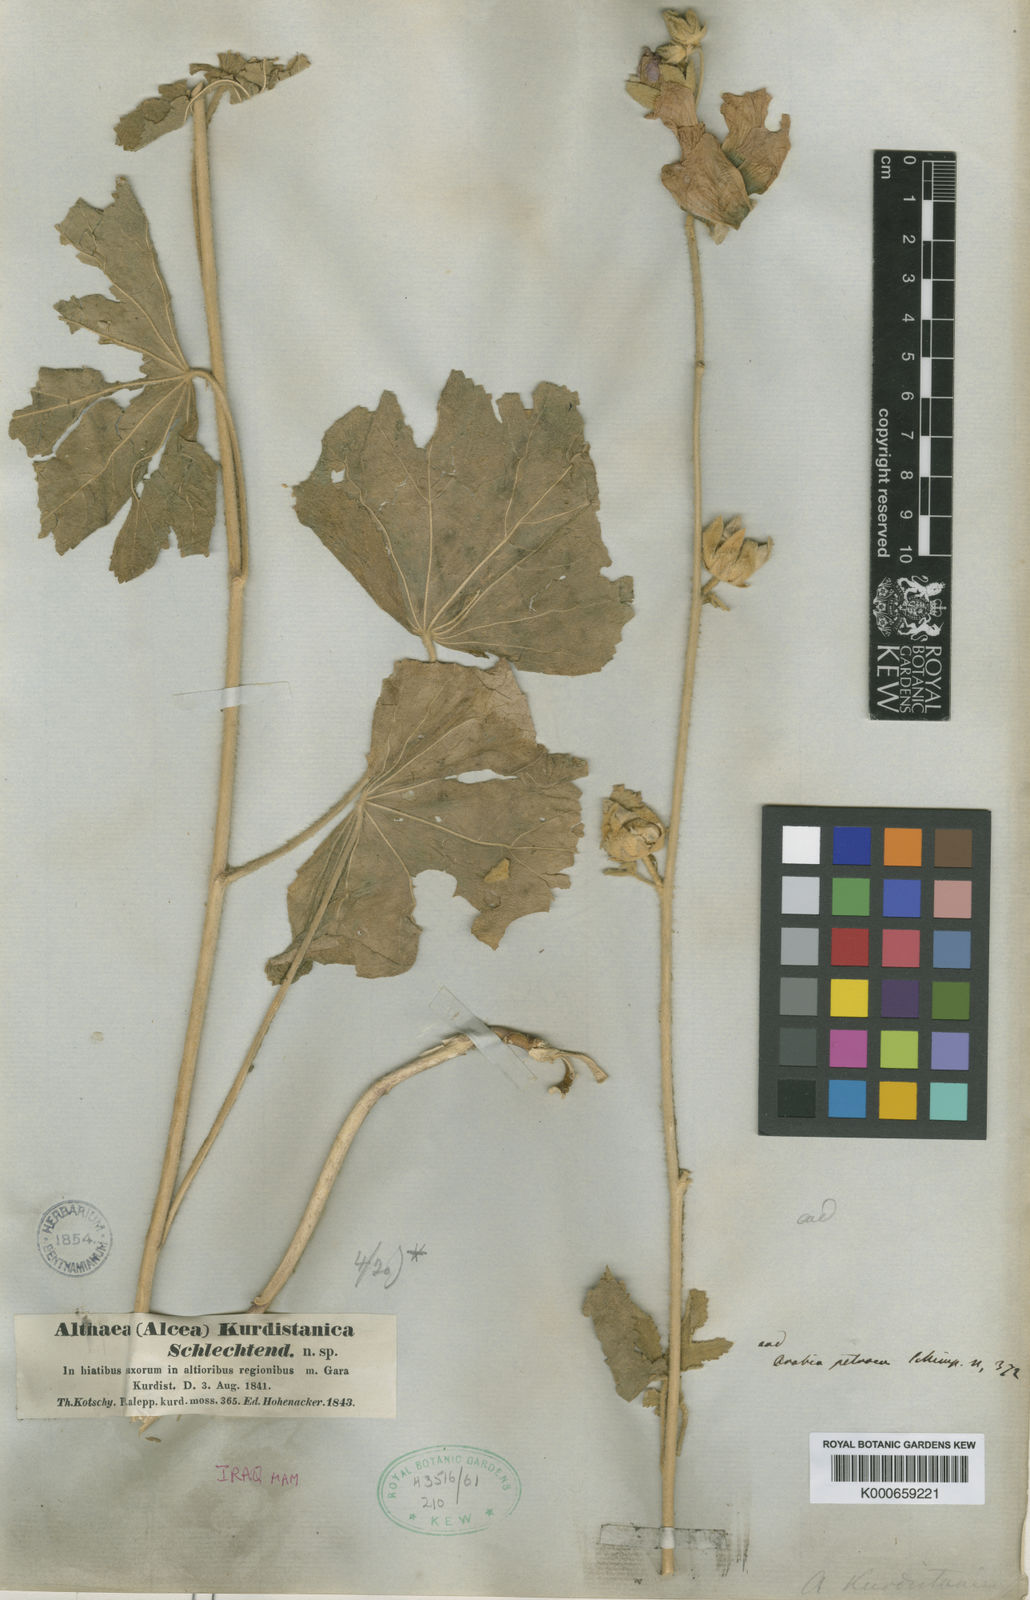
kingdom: Plantae
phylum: Tracheophyta
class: Magnoliopsida
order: Malvales
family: Malvaceae
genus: Alcea
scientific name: Alcea kurdica
